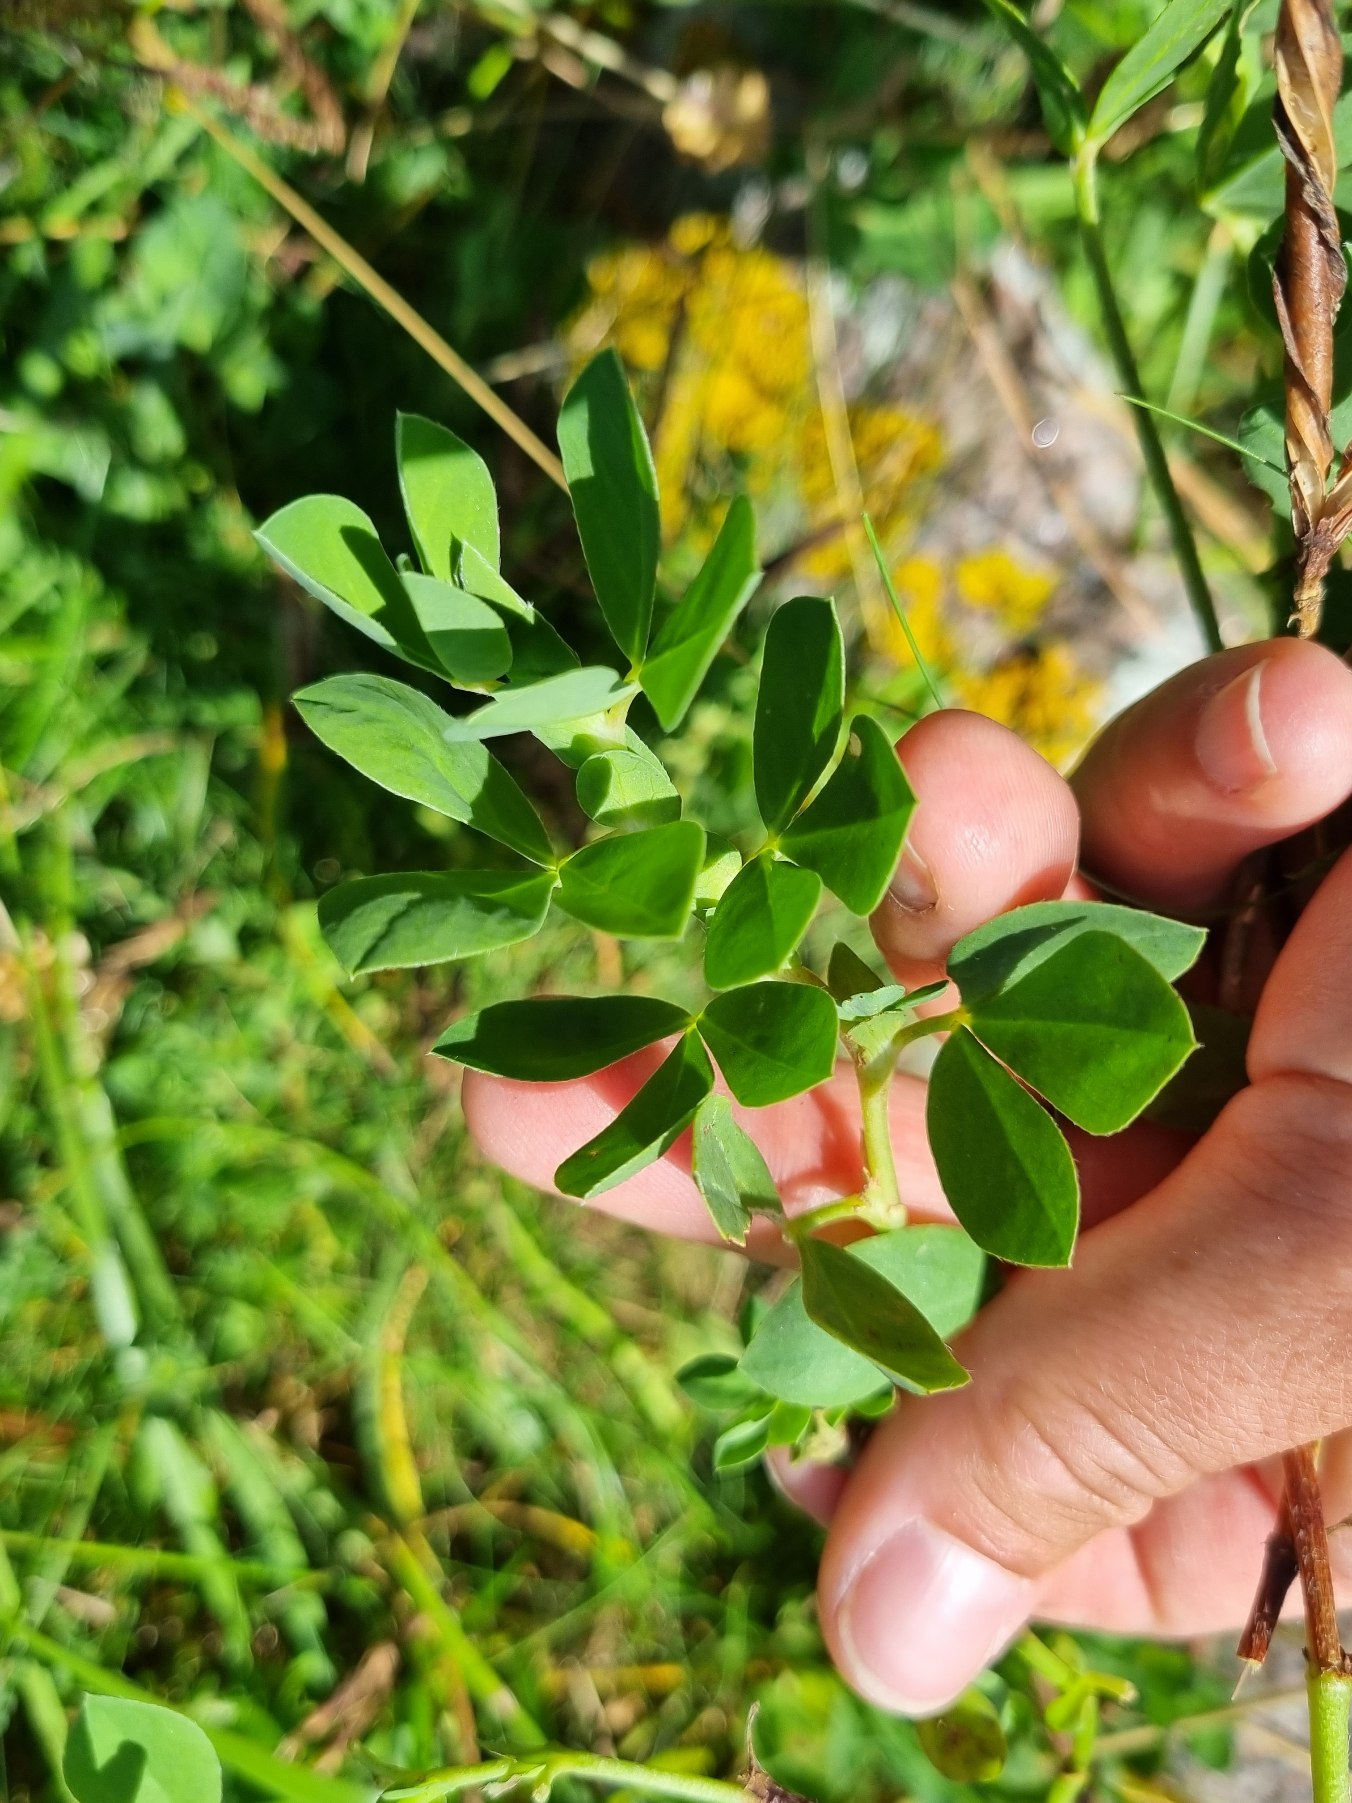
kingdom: Plantae
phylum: Tracheophyta
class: Magnoliopsida
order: Fabales
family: Fabaceae
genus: Lotus
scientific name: Lotus maritimus
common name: Kantbælg
